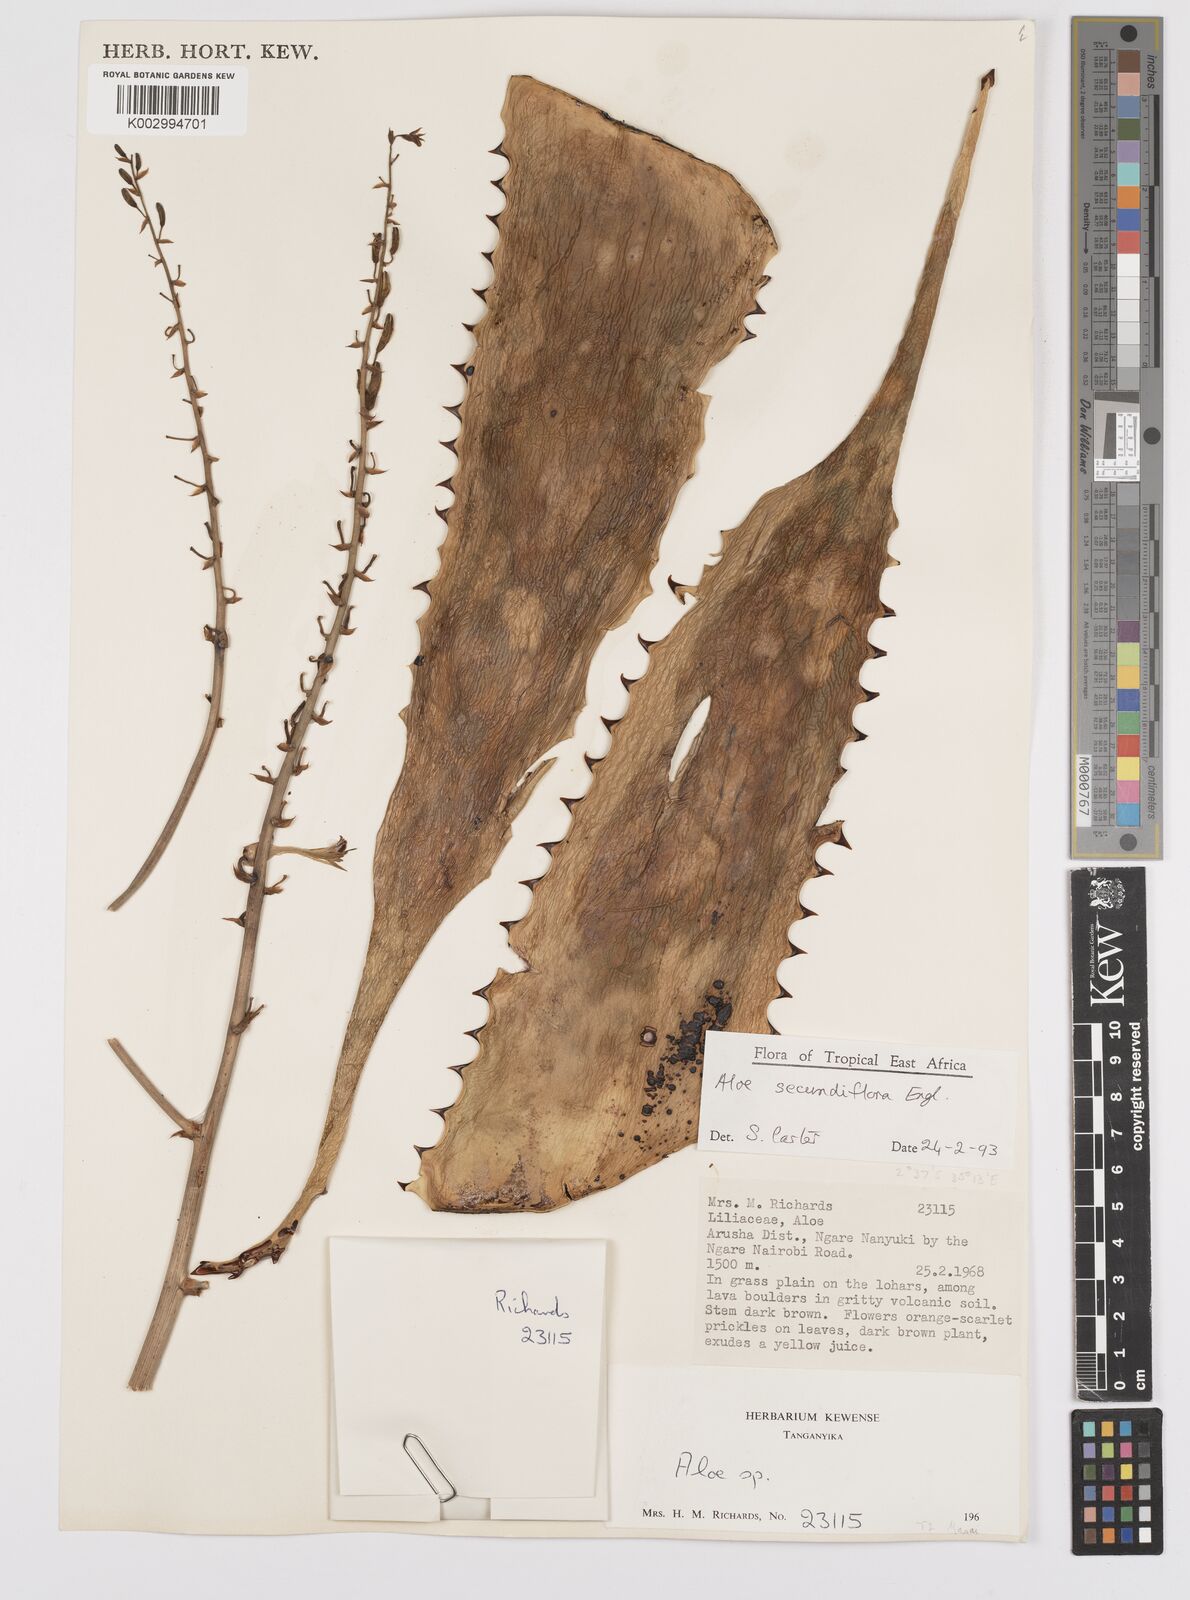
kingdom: Plantae
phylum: Tracheophyta
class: Liliopsida
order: Asparagales
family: Asphodelaceae
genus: Aloe
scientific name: Aloe secundiflora
